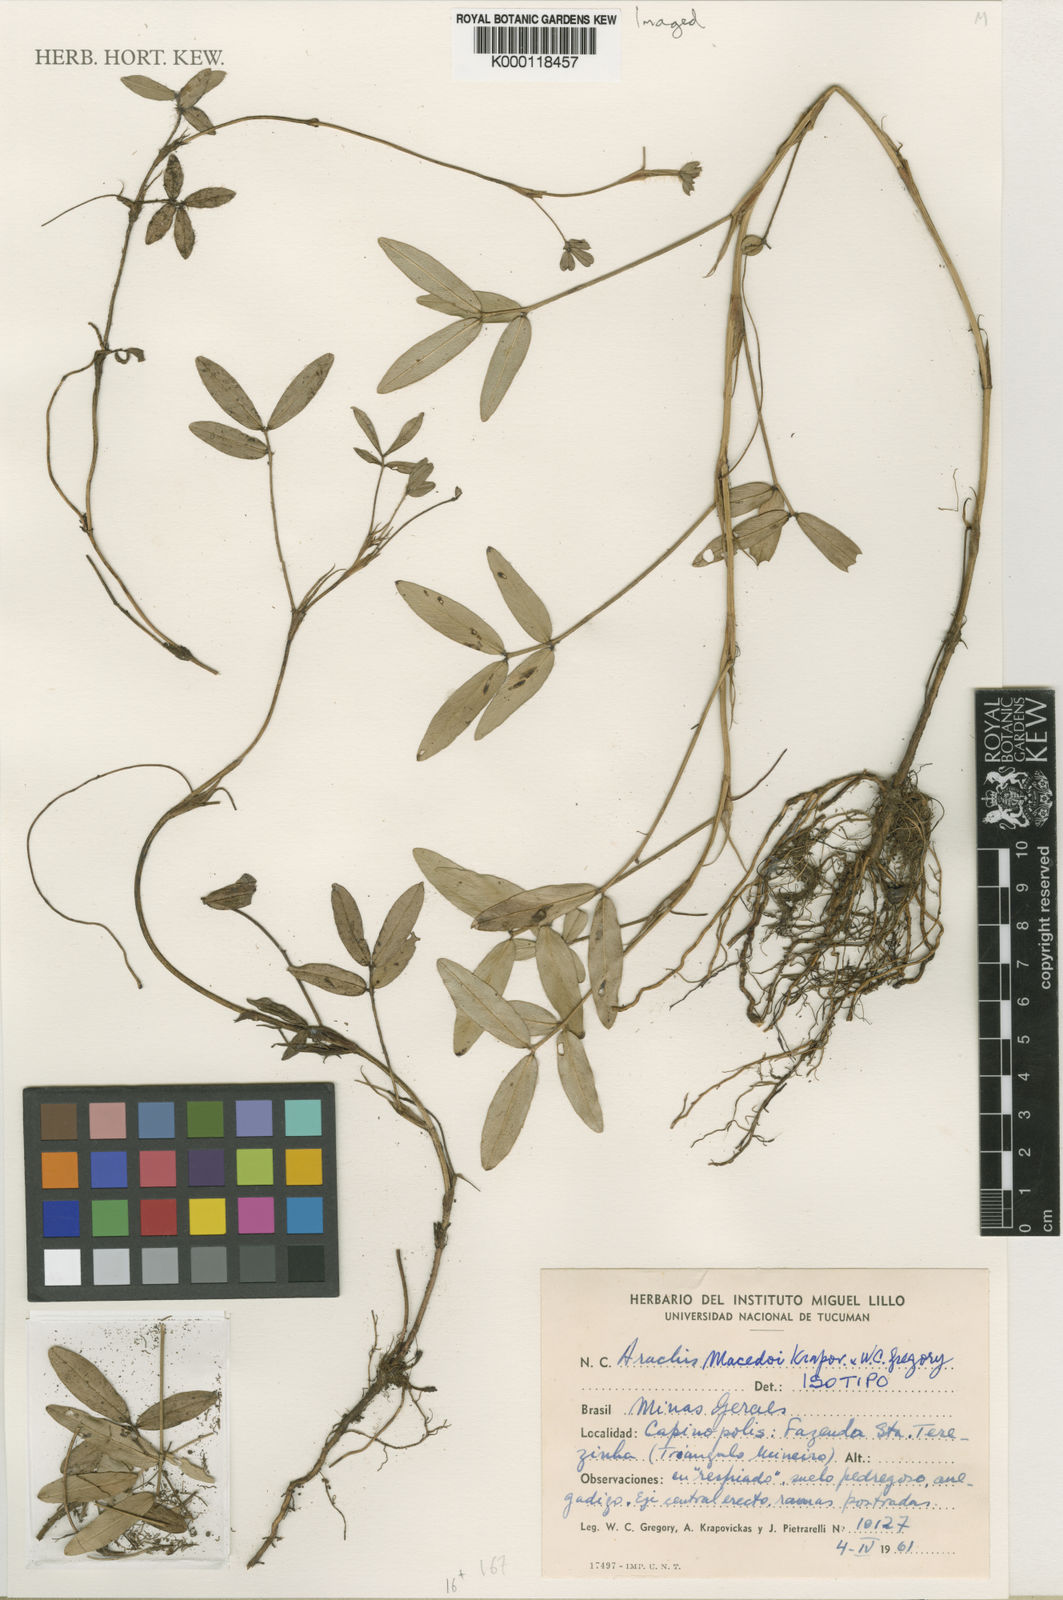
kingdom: Plantae
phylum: Tracheophyta
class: Magnoliopsida
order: Fabales
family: Fabaceae
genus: Arachis
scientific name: Arachis macedoi
